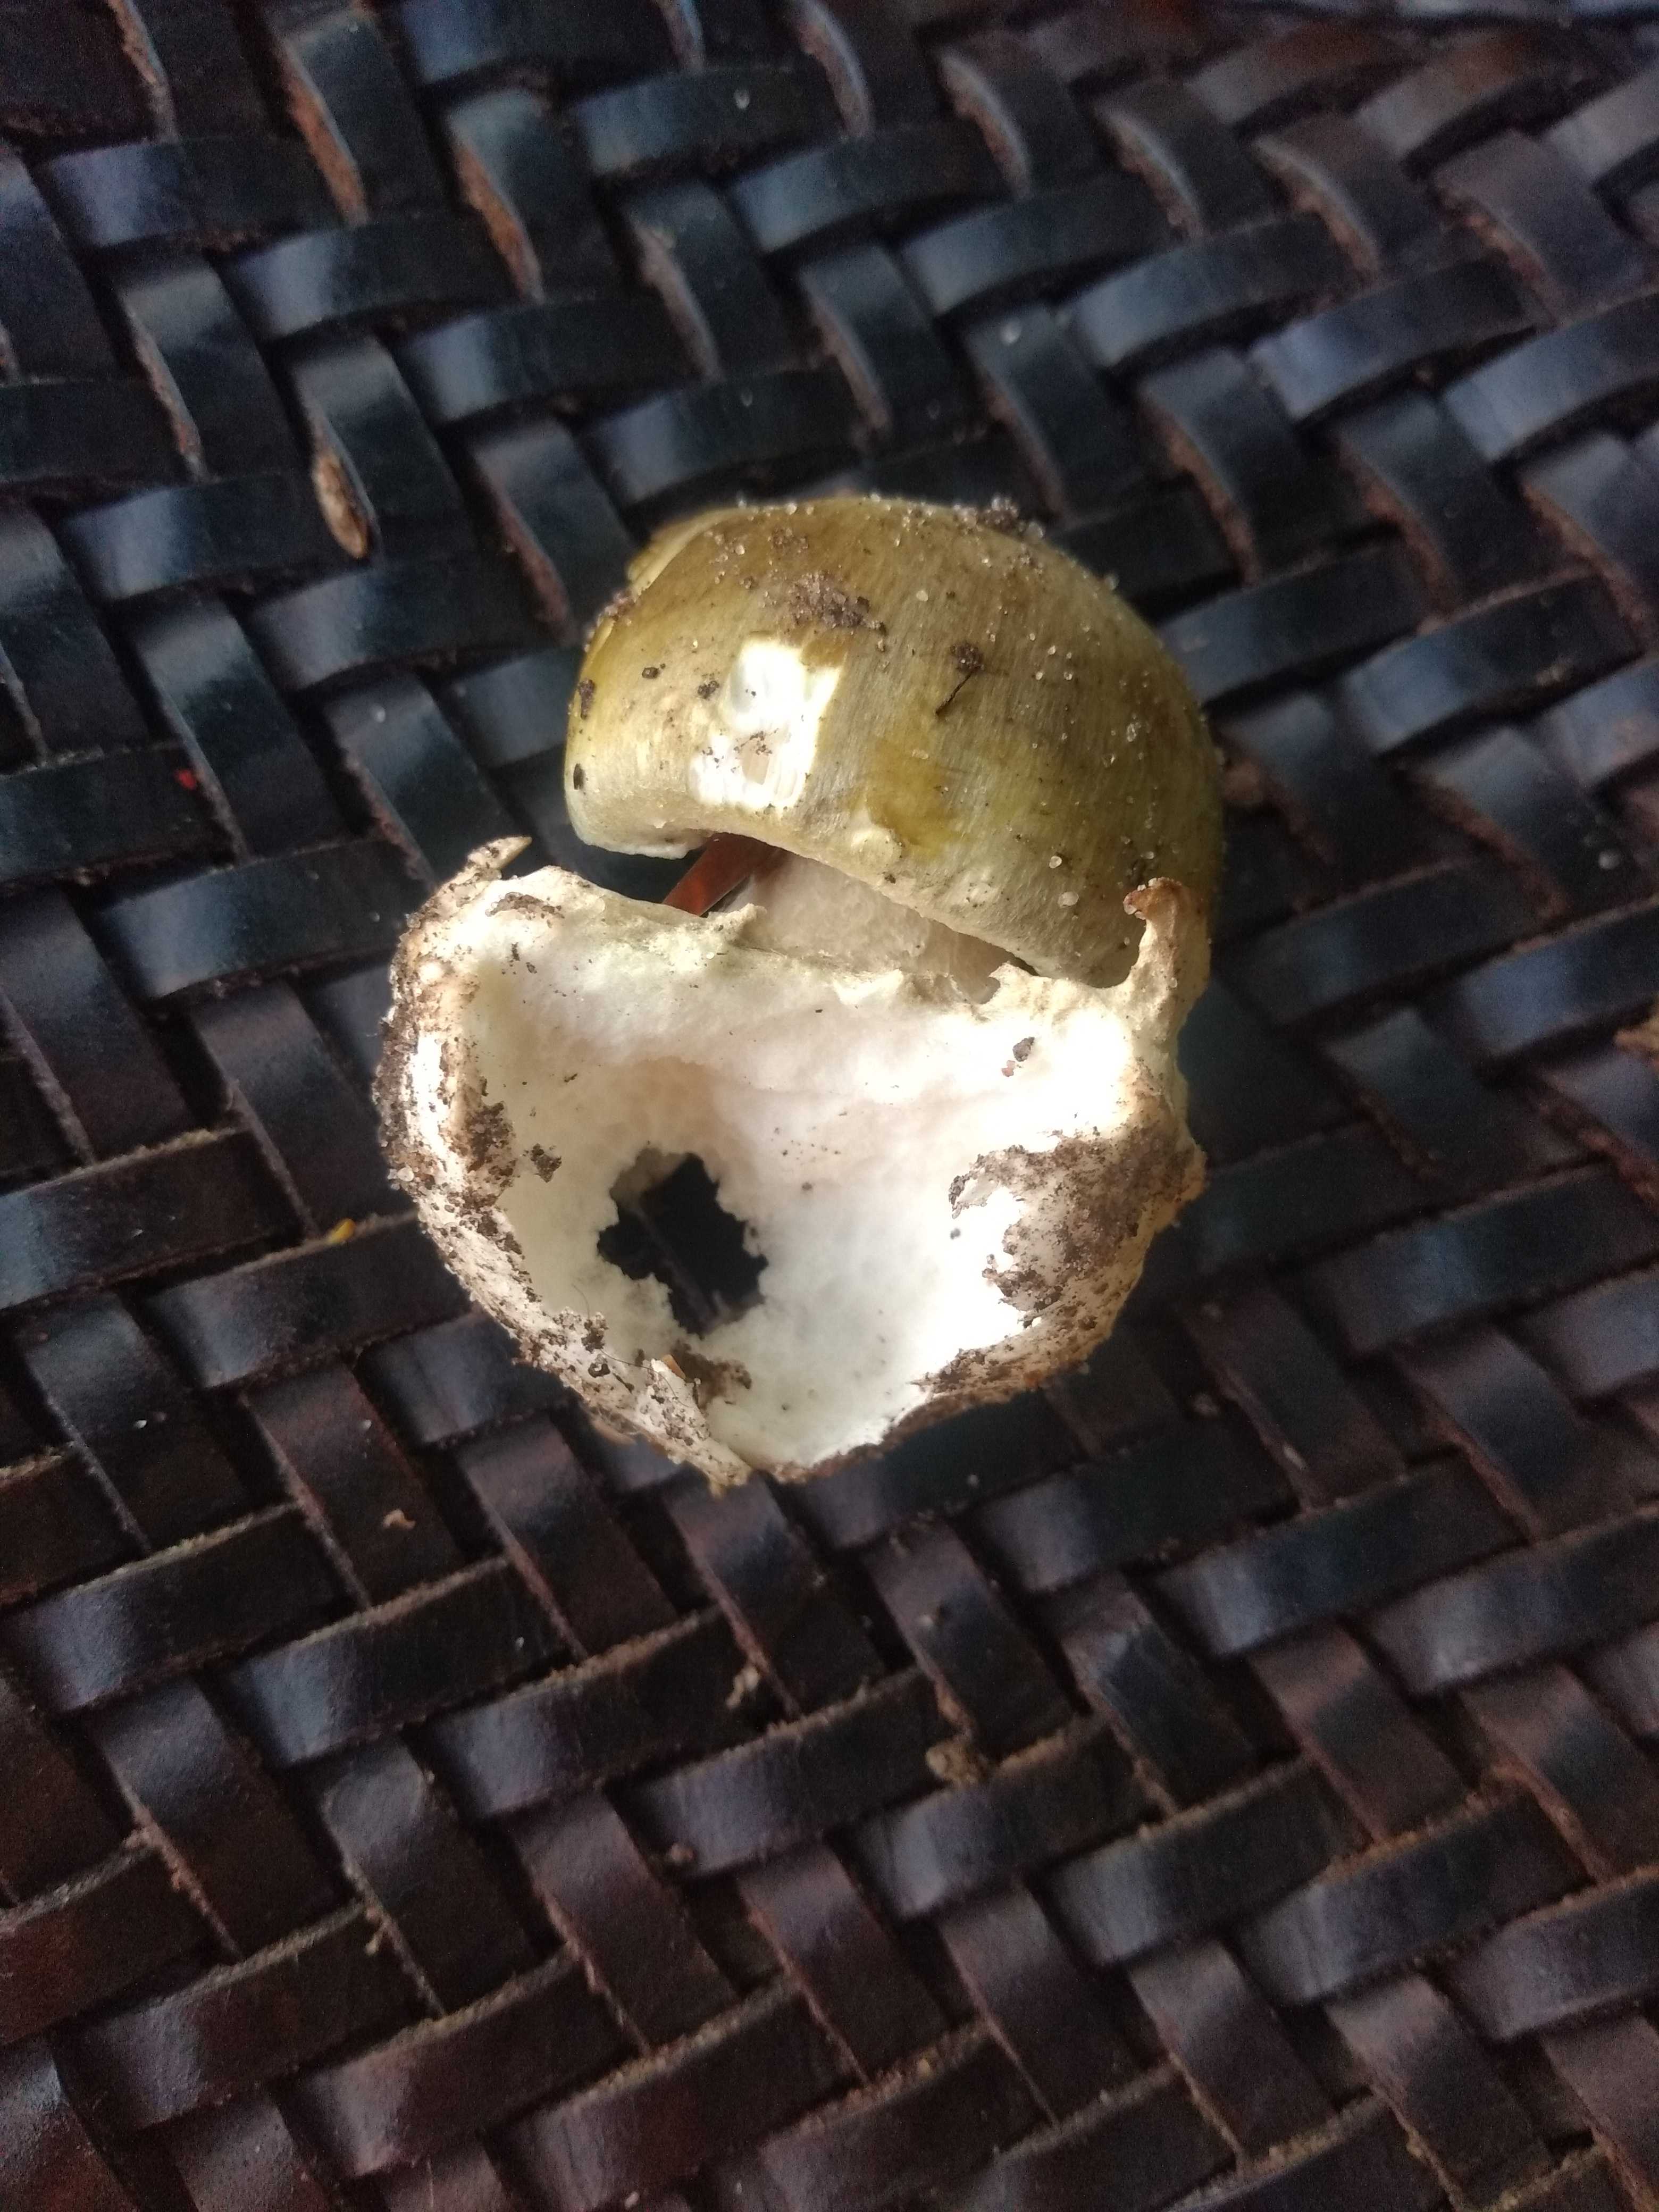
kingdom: Fungi
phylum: Basidiomycota
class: Agaricomycetes
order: Agaricales
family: Amanitaceae
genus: Amanita
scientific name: Amanita phalloides
